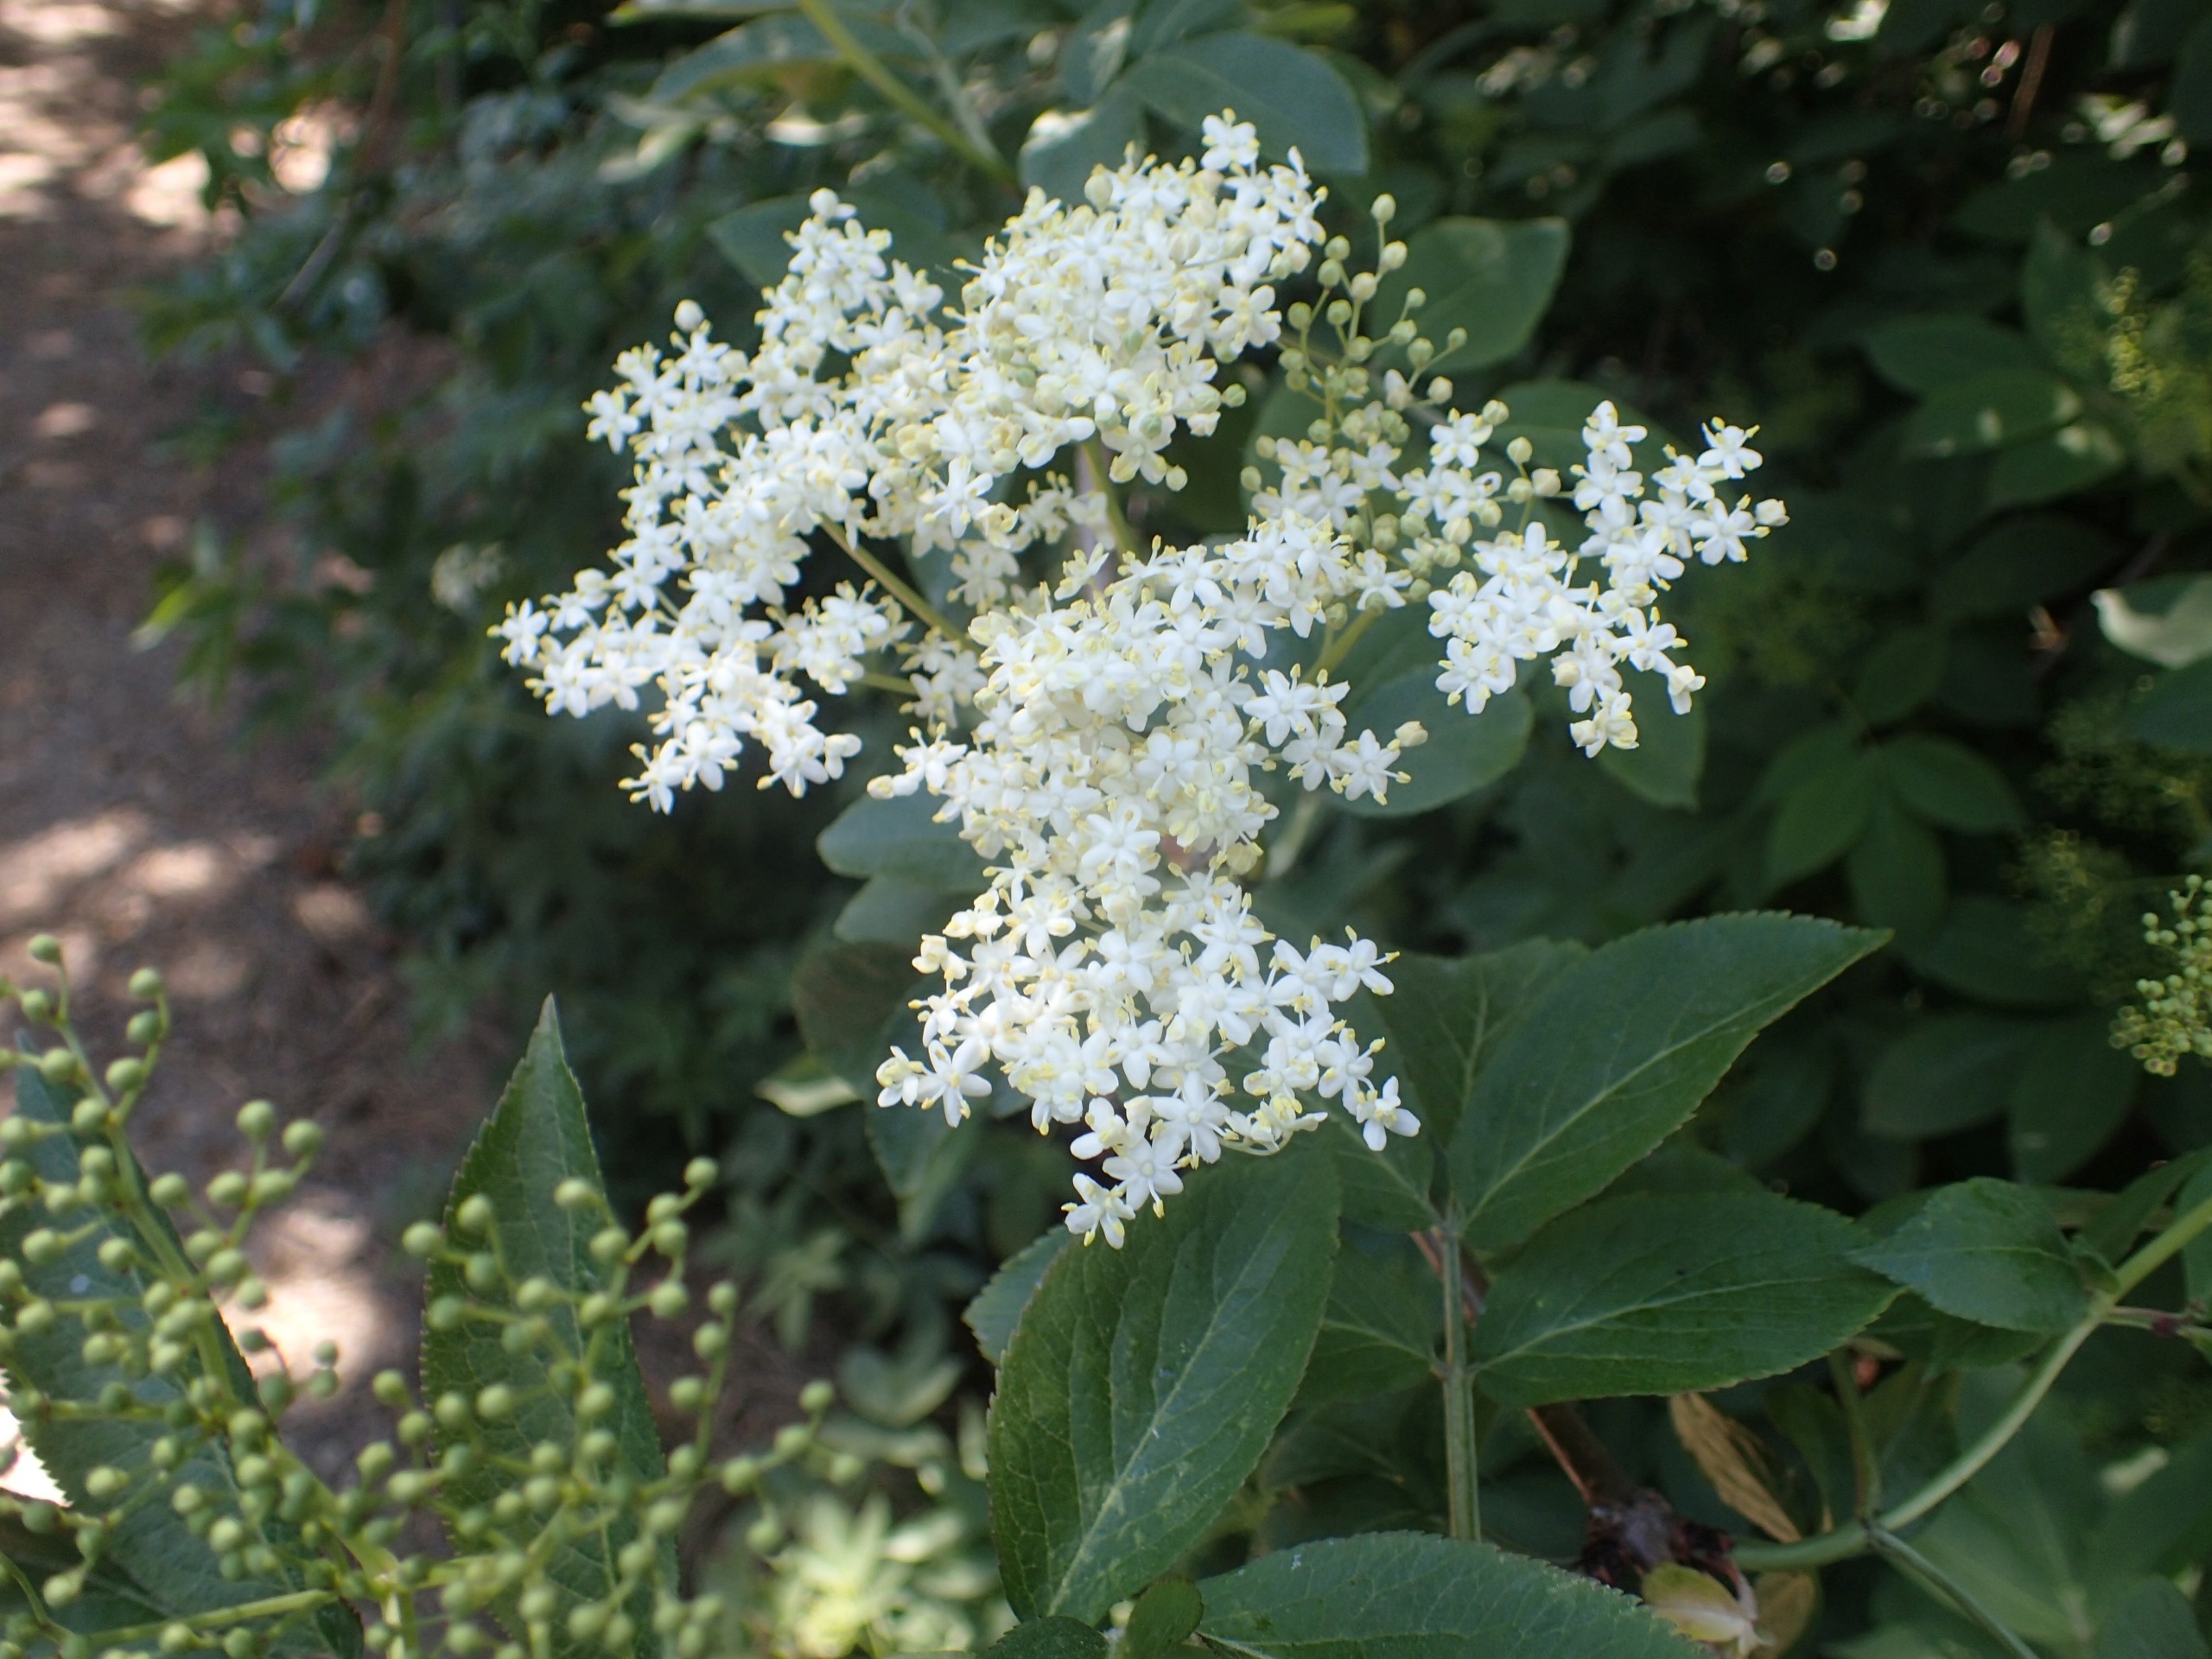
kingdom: Plantae
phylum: Tracheophyta
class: Magnoliopsida
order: Dipsacales
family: Viburnaceae
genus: Sambucus
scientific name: Sambucus nigra
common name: Almindelig hyld
